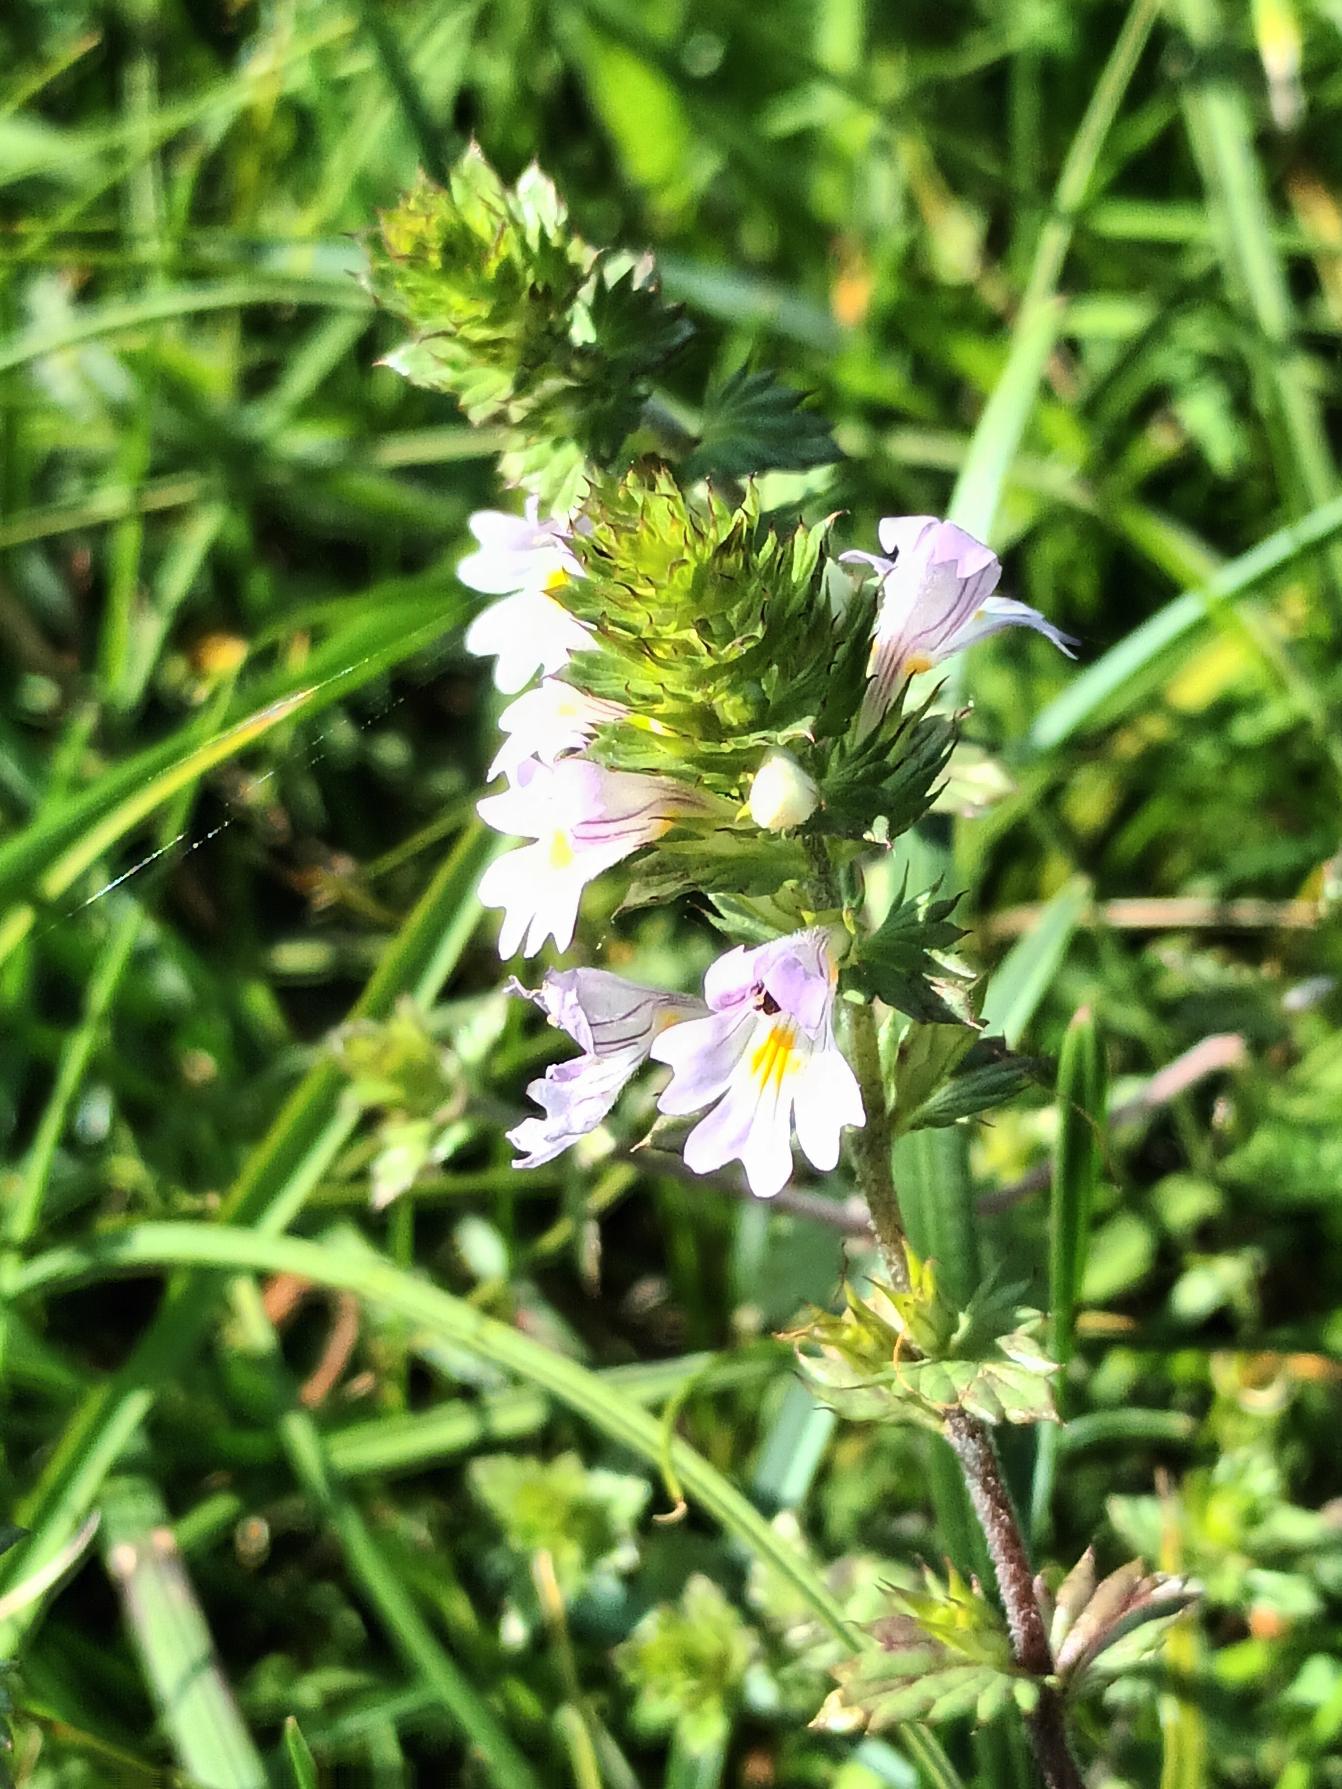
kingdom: Plantae
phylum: Tracheophyta
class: Magnoliopsida
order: Lamiales
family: Orobanchaceae
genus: Euphrasia
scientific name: Euphrasia stricta
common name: Spids øjentrøst
